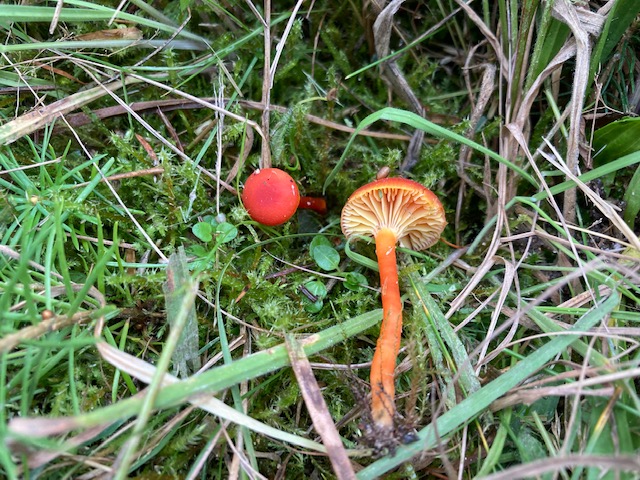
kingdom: Fungi
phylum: Basidiomycota
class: Agaricomycetes
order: Agaricales
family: Hygrophoraceae
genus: Hygrocybe
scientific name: Hygrocybe miniata
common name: mønje-vokshat
